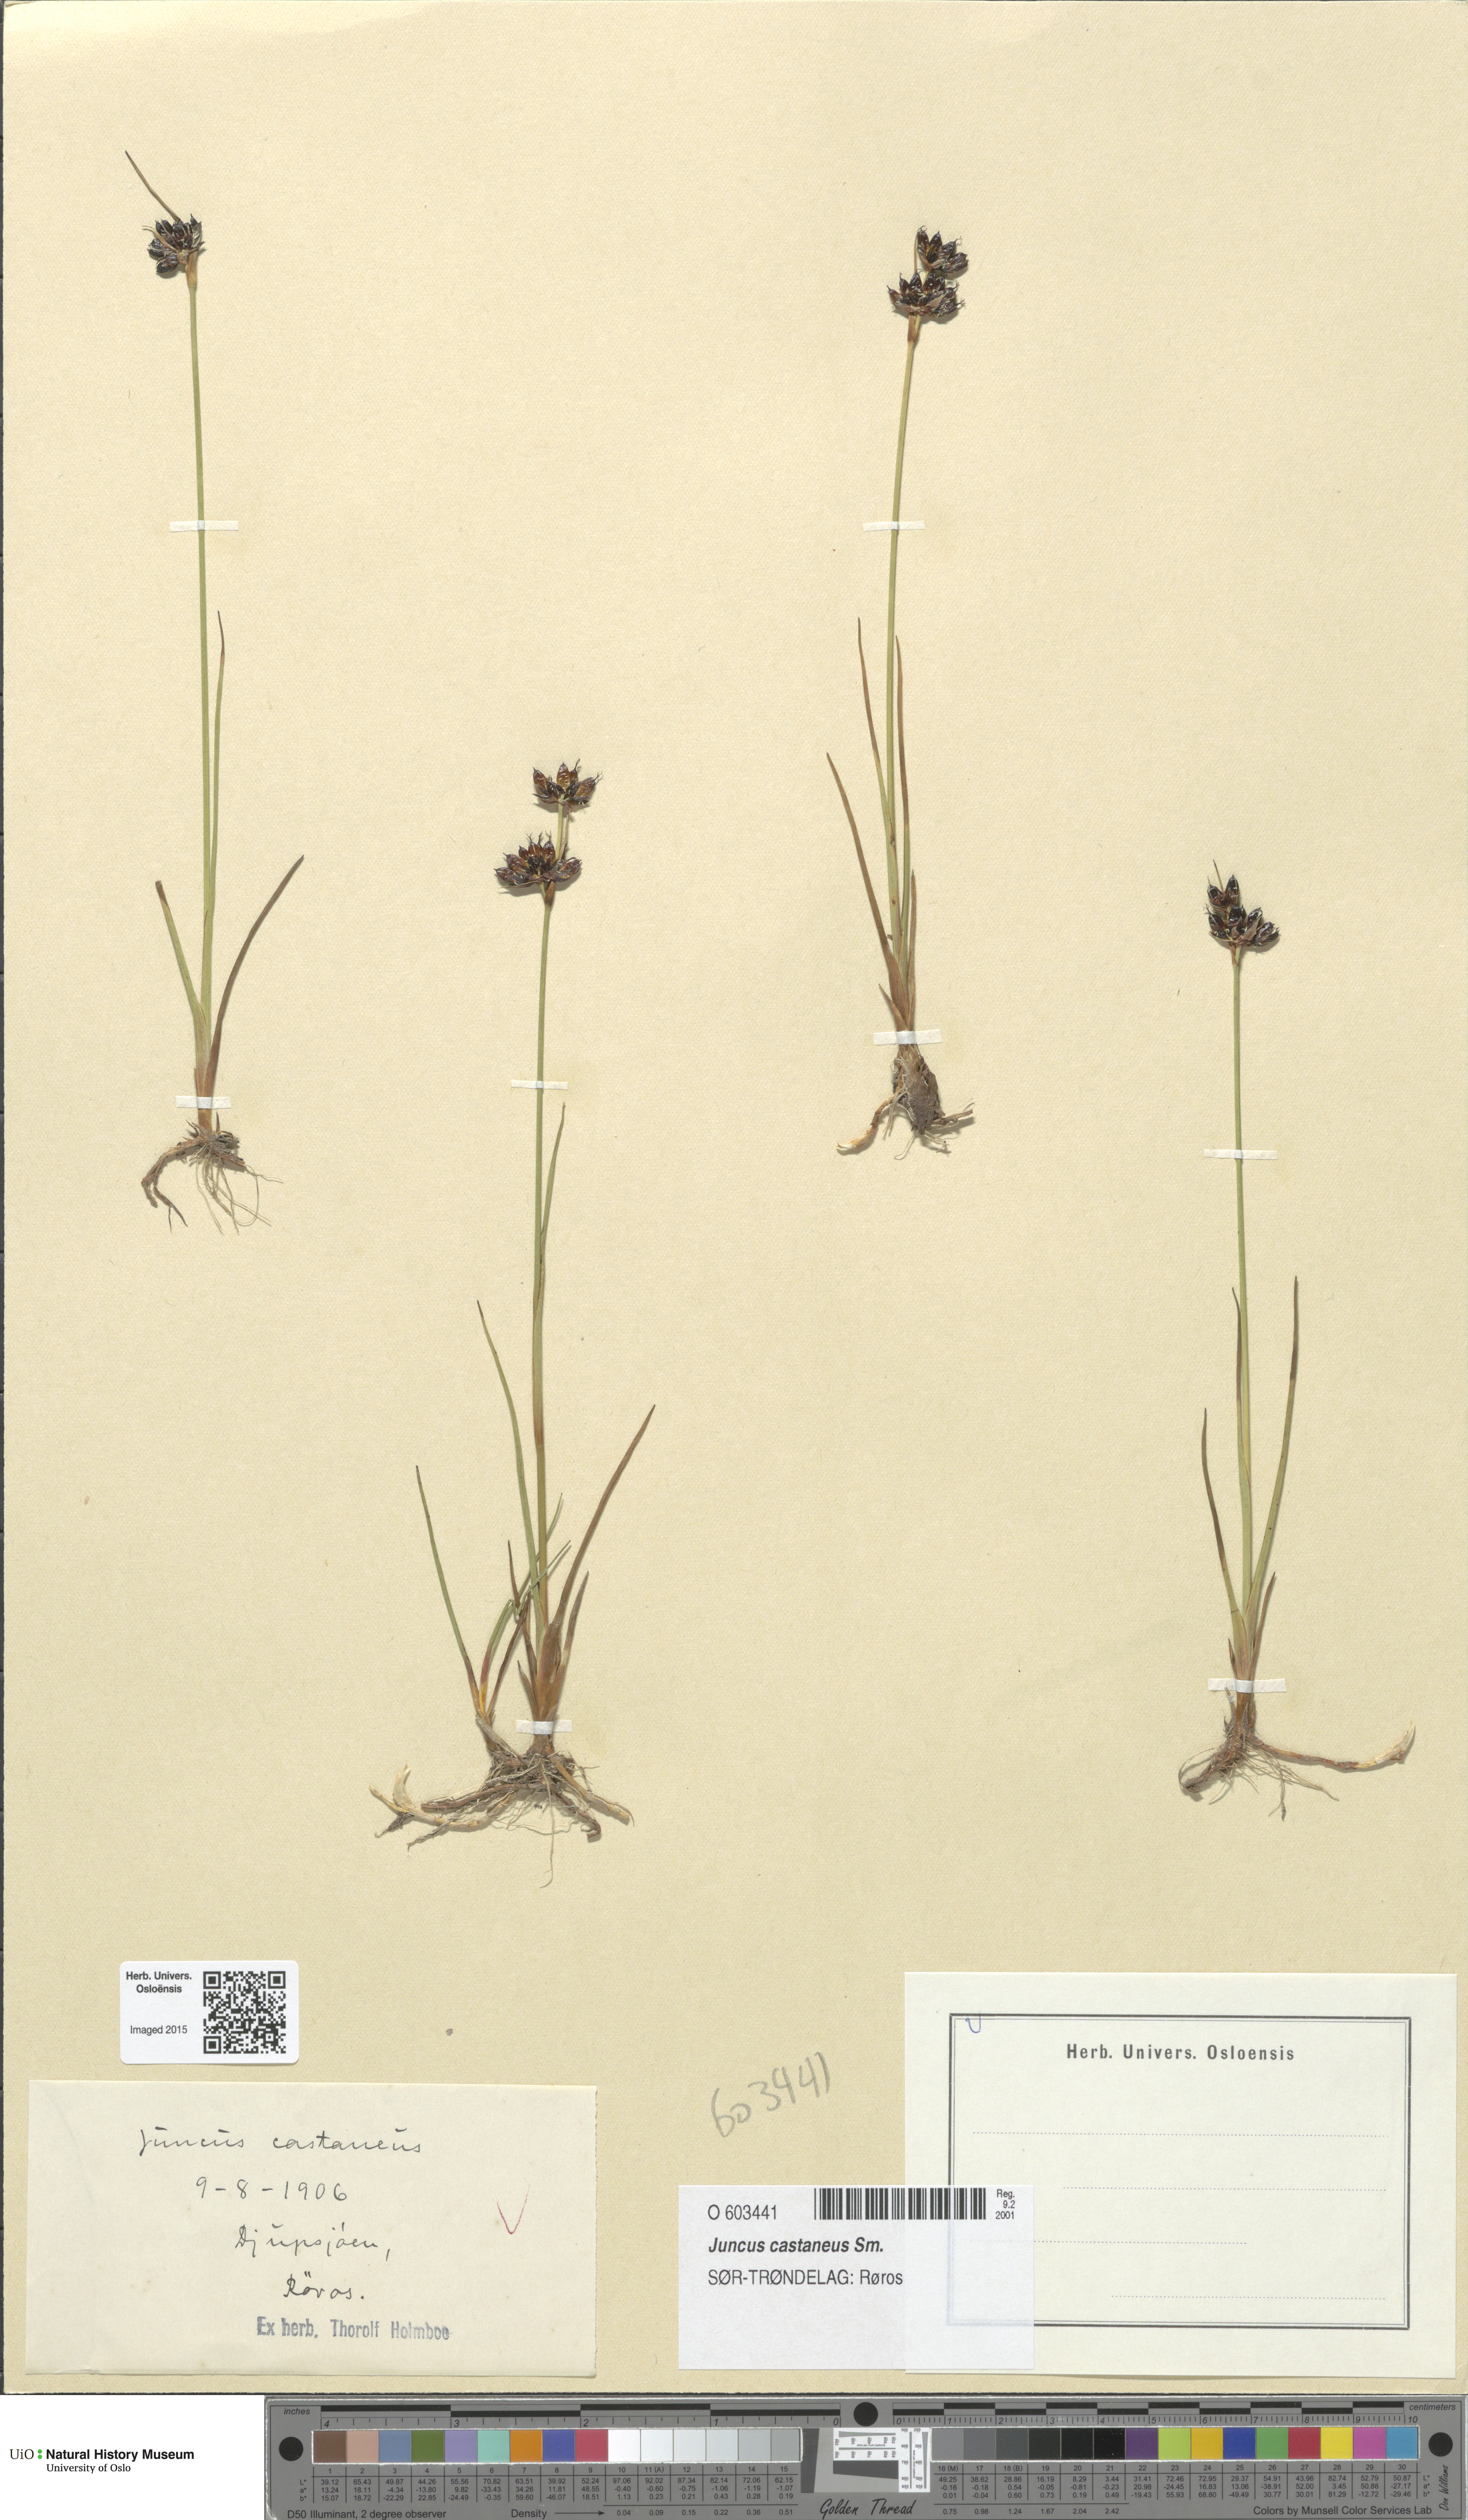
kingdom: Plantae
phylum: Tracheophyta
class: Liliopsida
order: Poales
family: Juncaceae
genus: Juncus
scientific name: Juncus castaneus
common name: Chestnut rush
